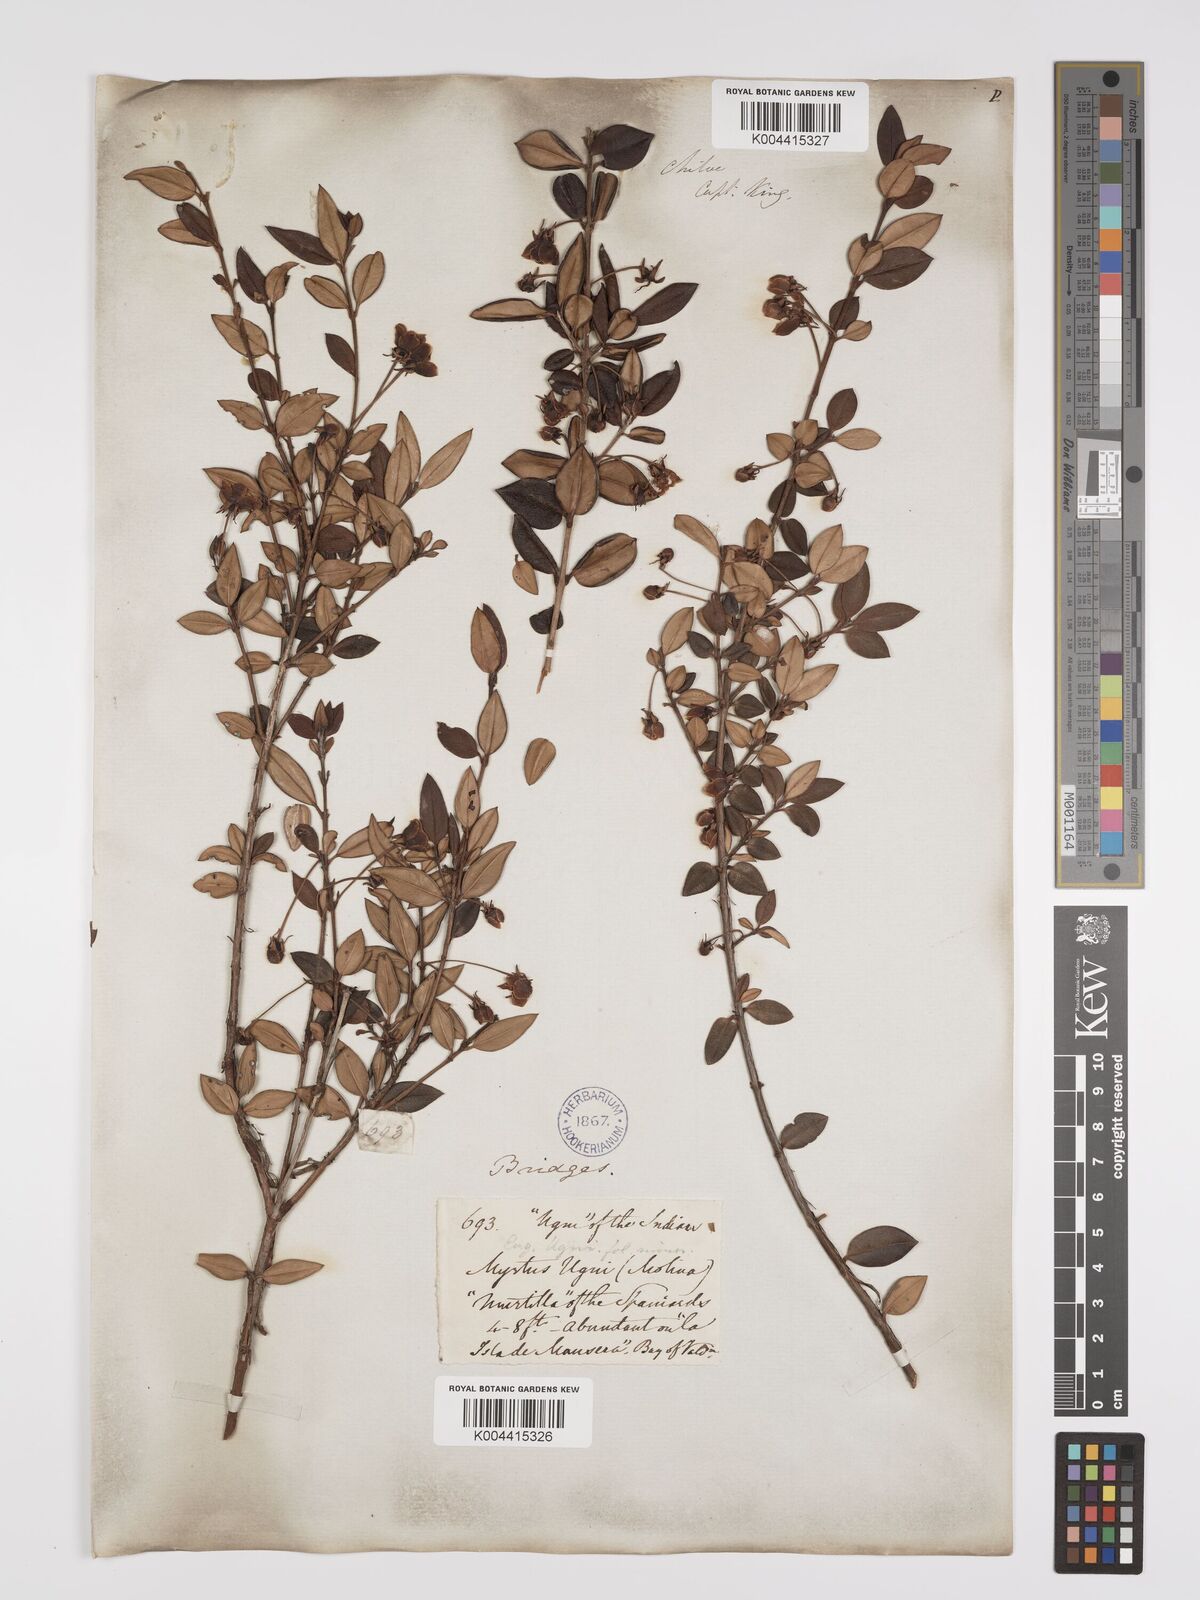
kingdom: Plantae
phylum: Tracheophyta
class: Magnoliopsida
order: Myrtales
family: Myrtaceae
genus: Ugni
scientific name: Ugni molinae
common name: Chilean-guava
